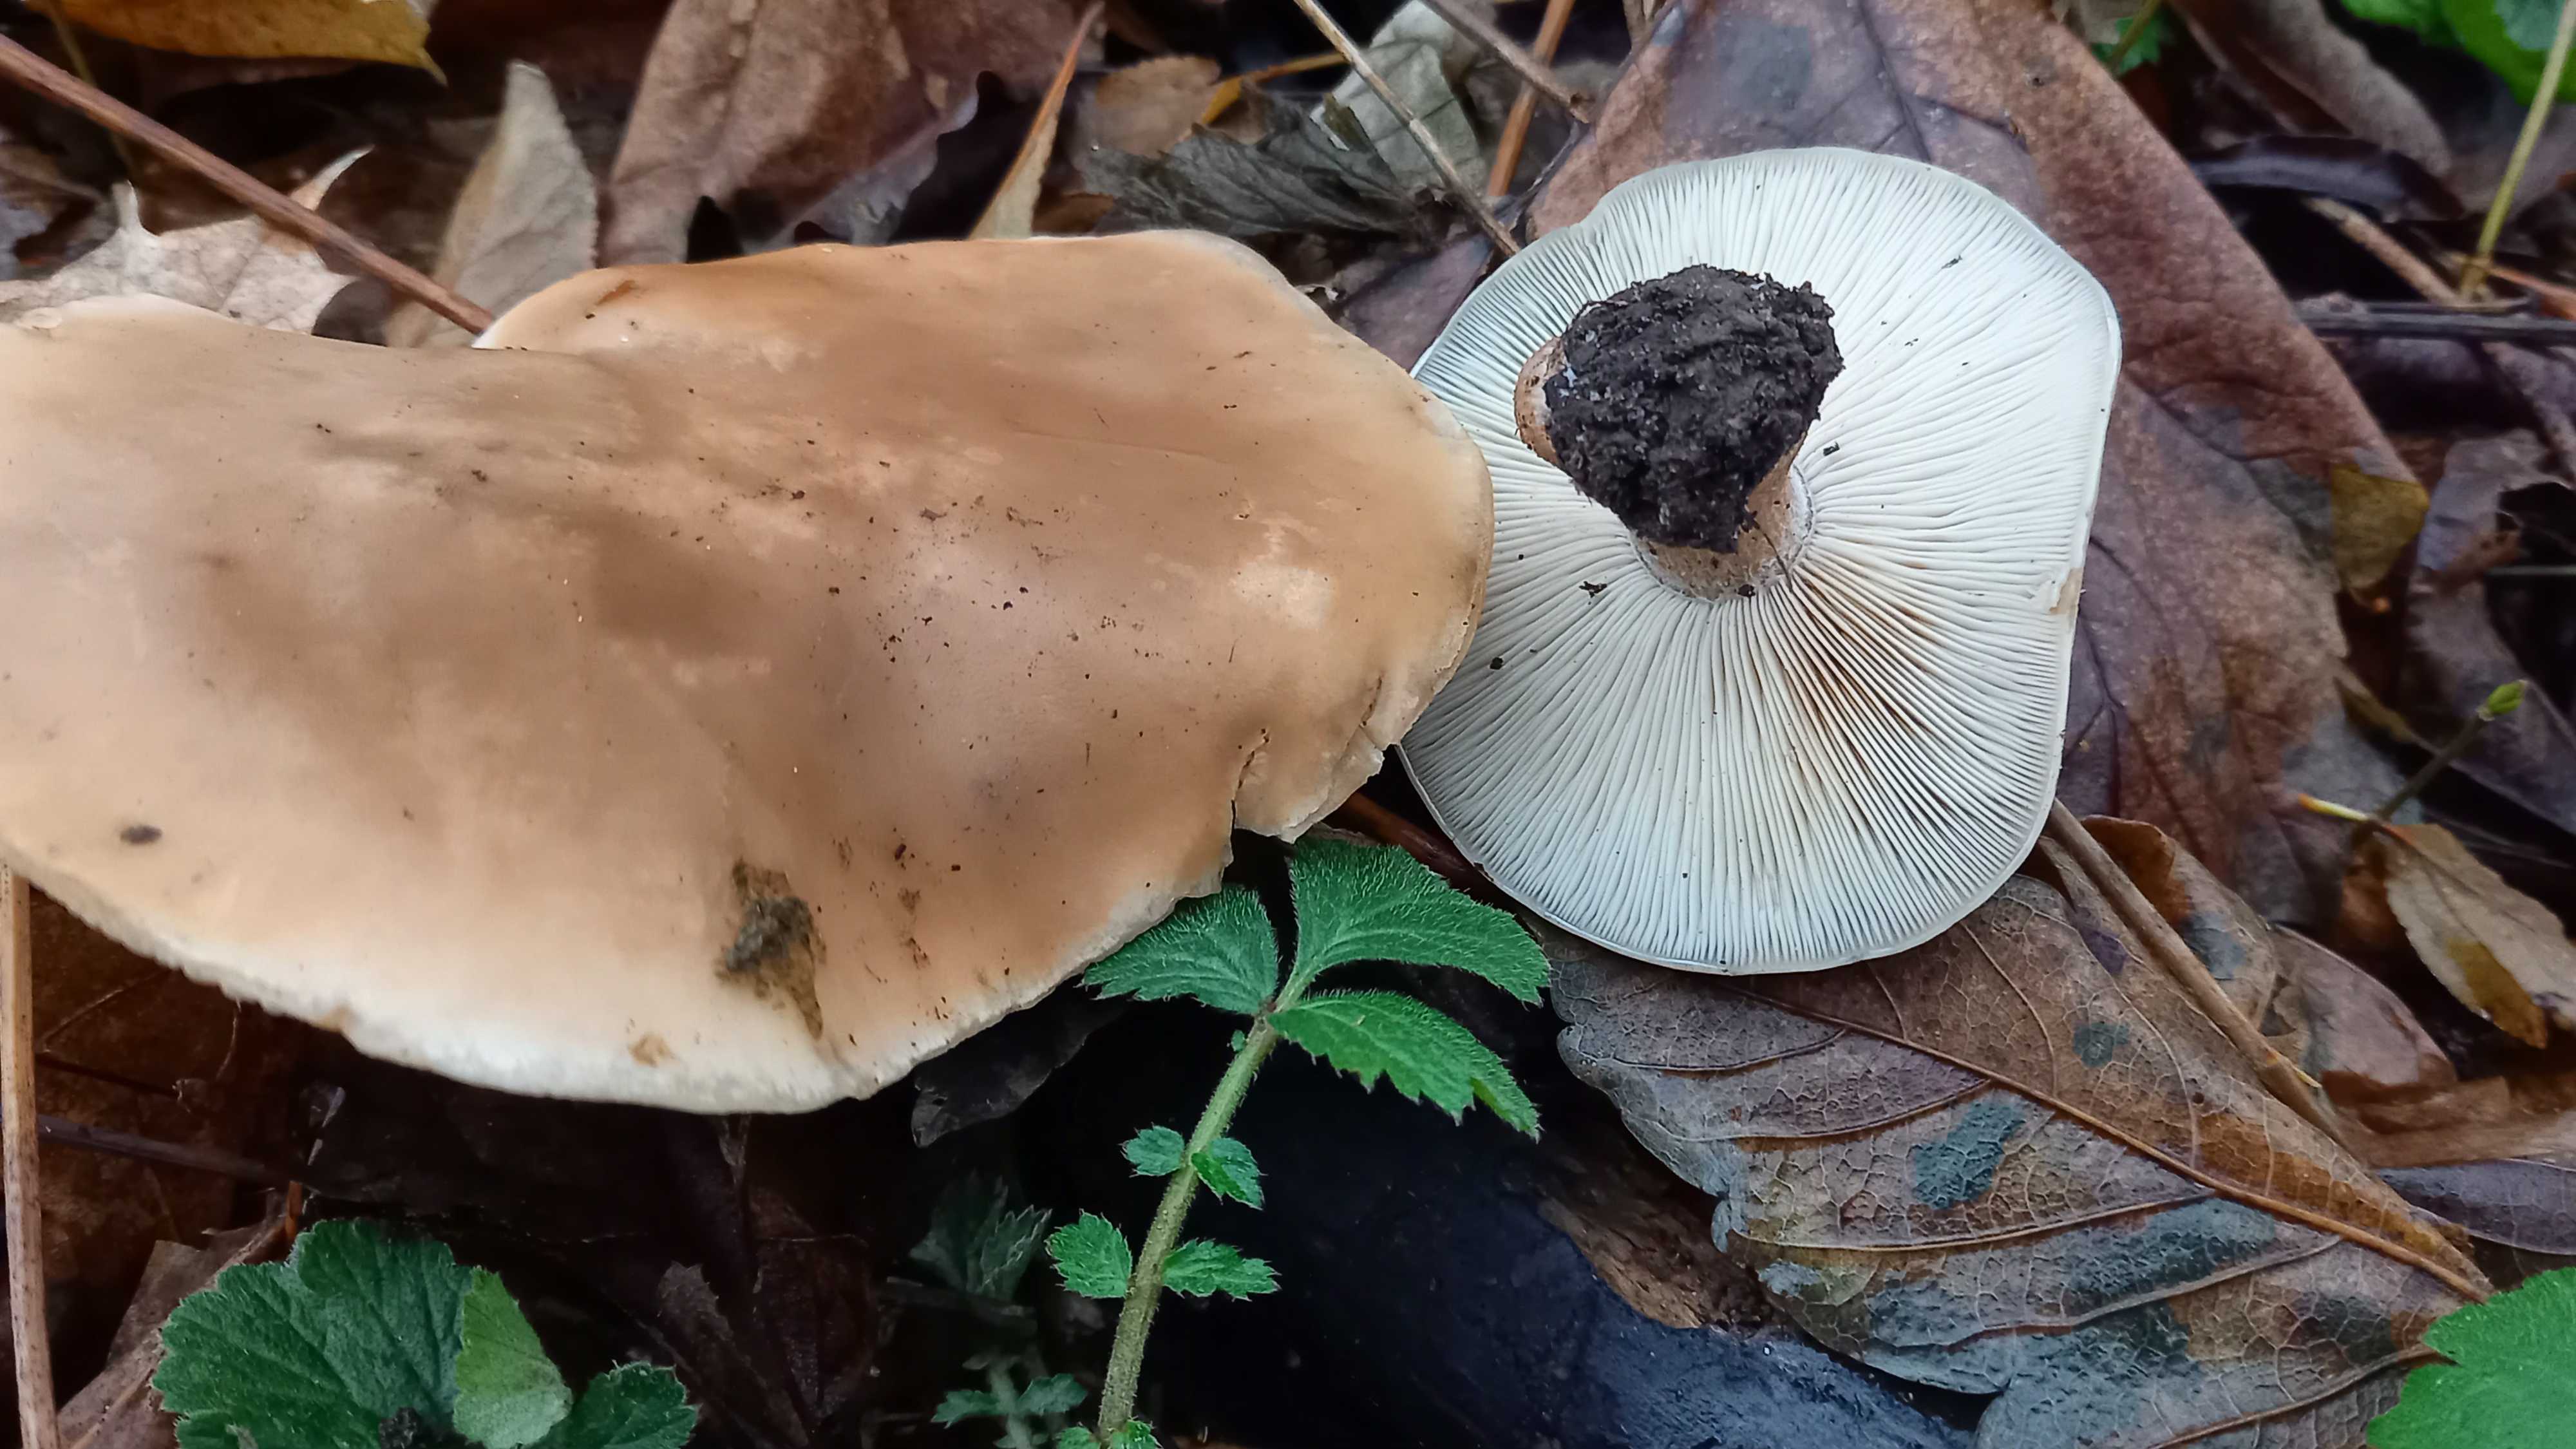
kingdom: Fungi
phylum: Basidiomycota
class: Agaricomycetes
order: Agaricales
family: Tricholomataceae
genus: Lepista
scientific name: Lepista personata
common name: bleg hekseringshat
